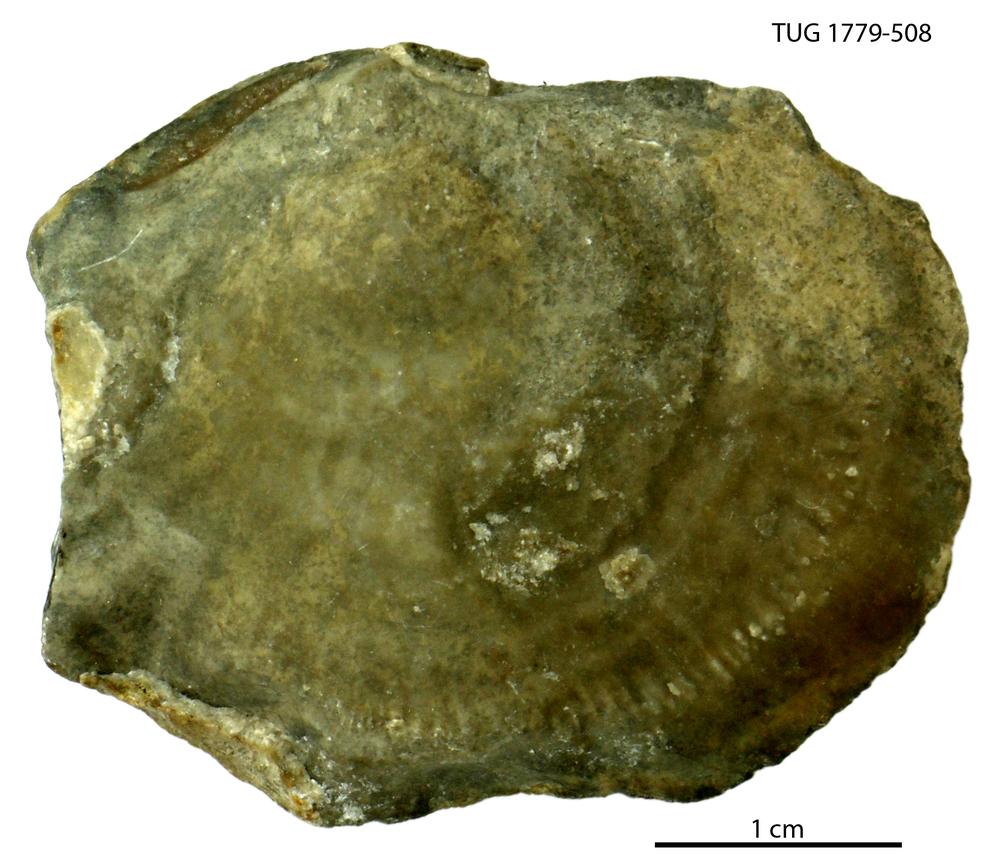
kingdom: Animalia
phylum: Mollusca
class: Bivalvia
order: Lucinida
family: Lucinidae
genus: Illionia
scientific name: Illionia Lucina prisca
